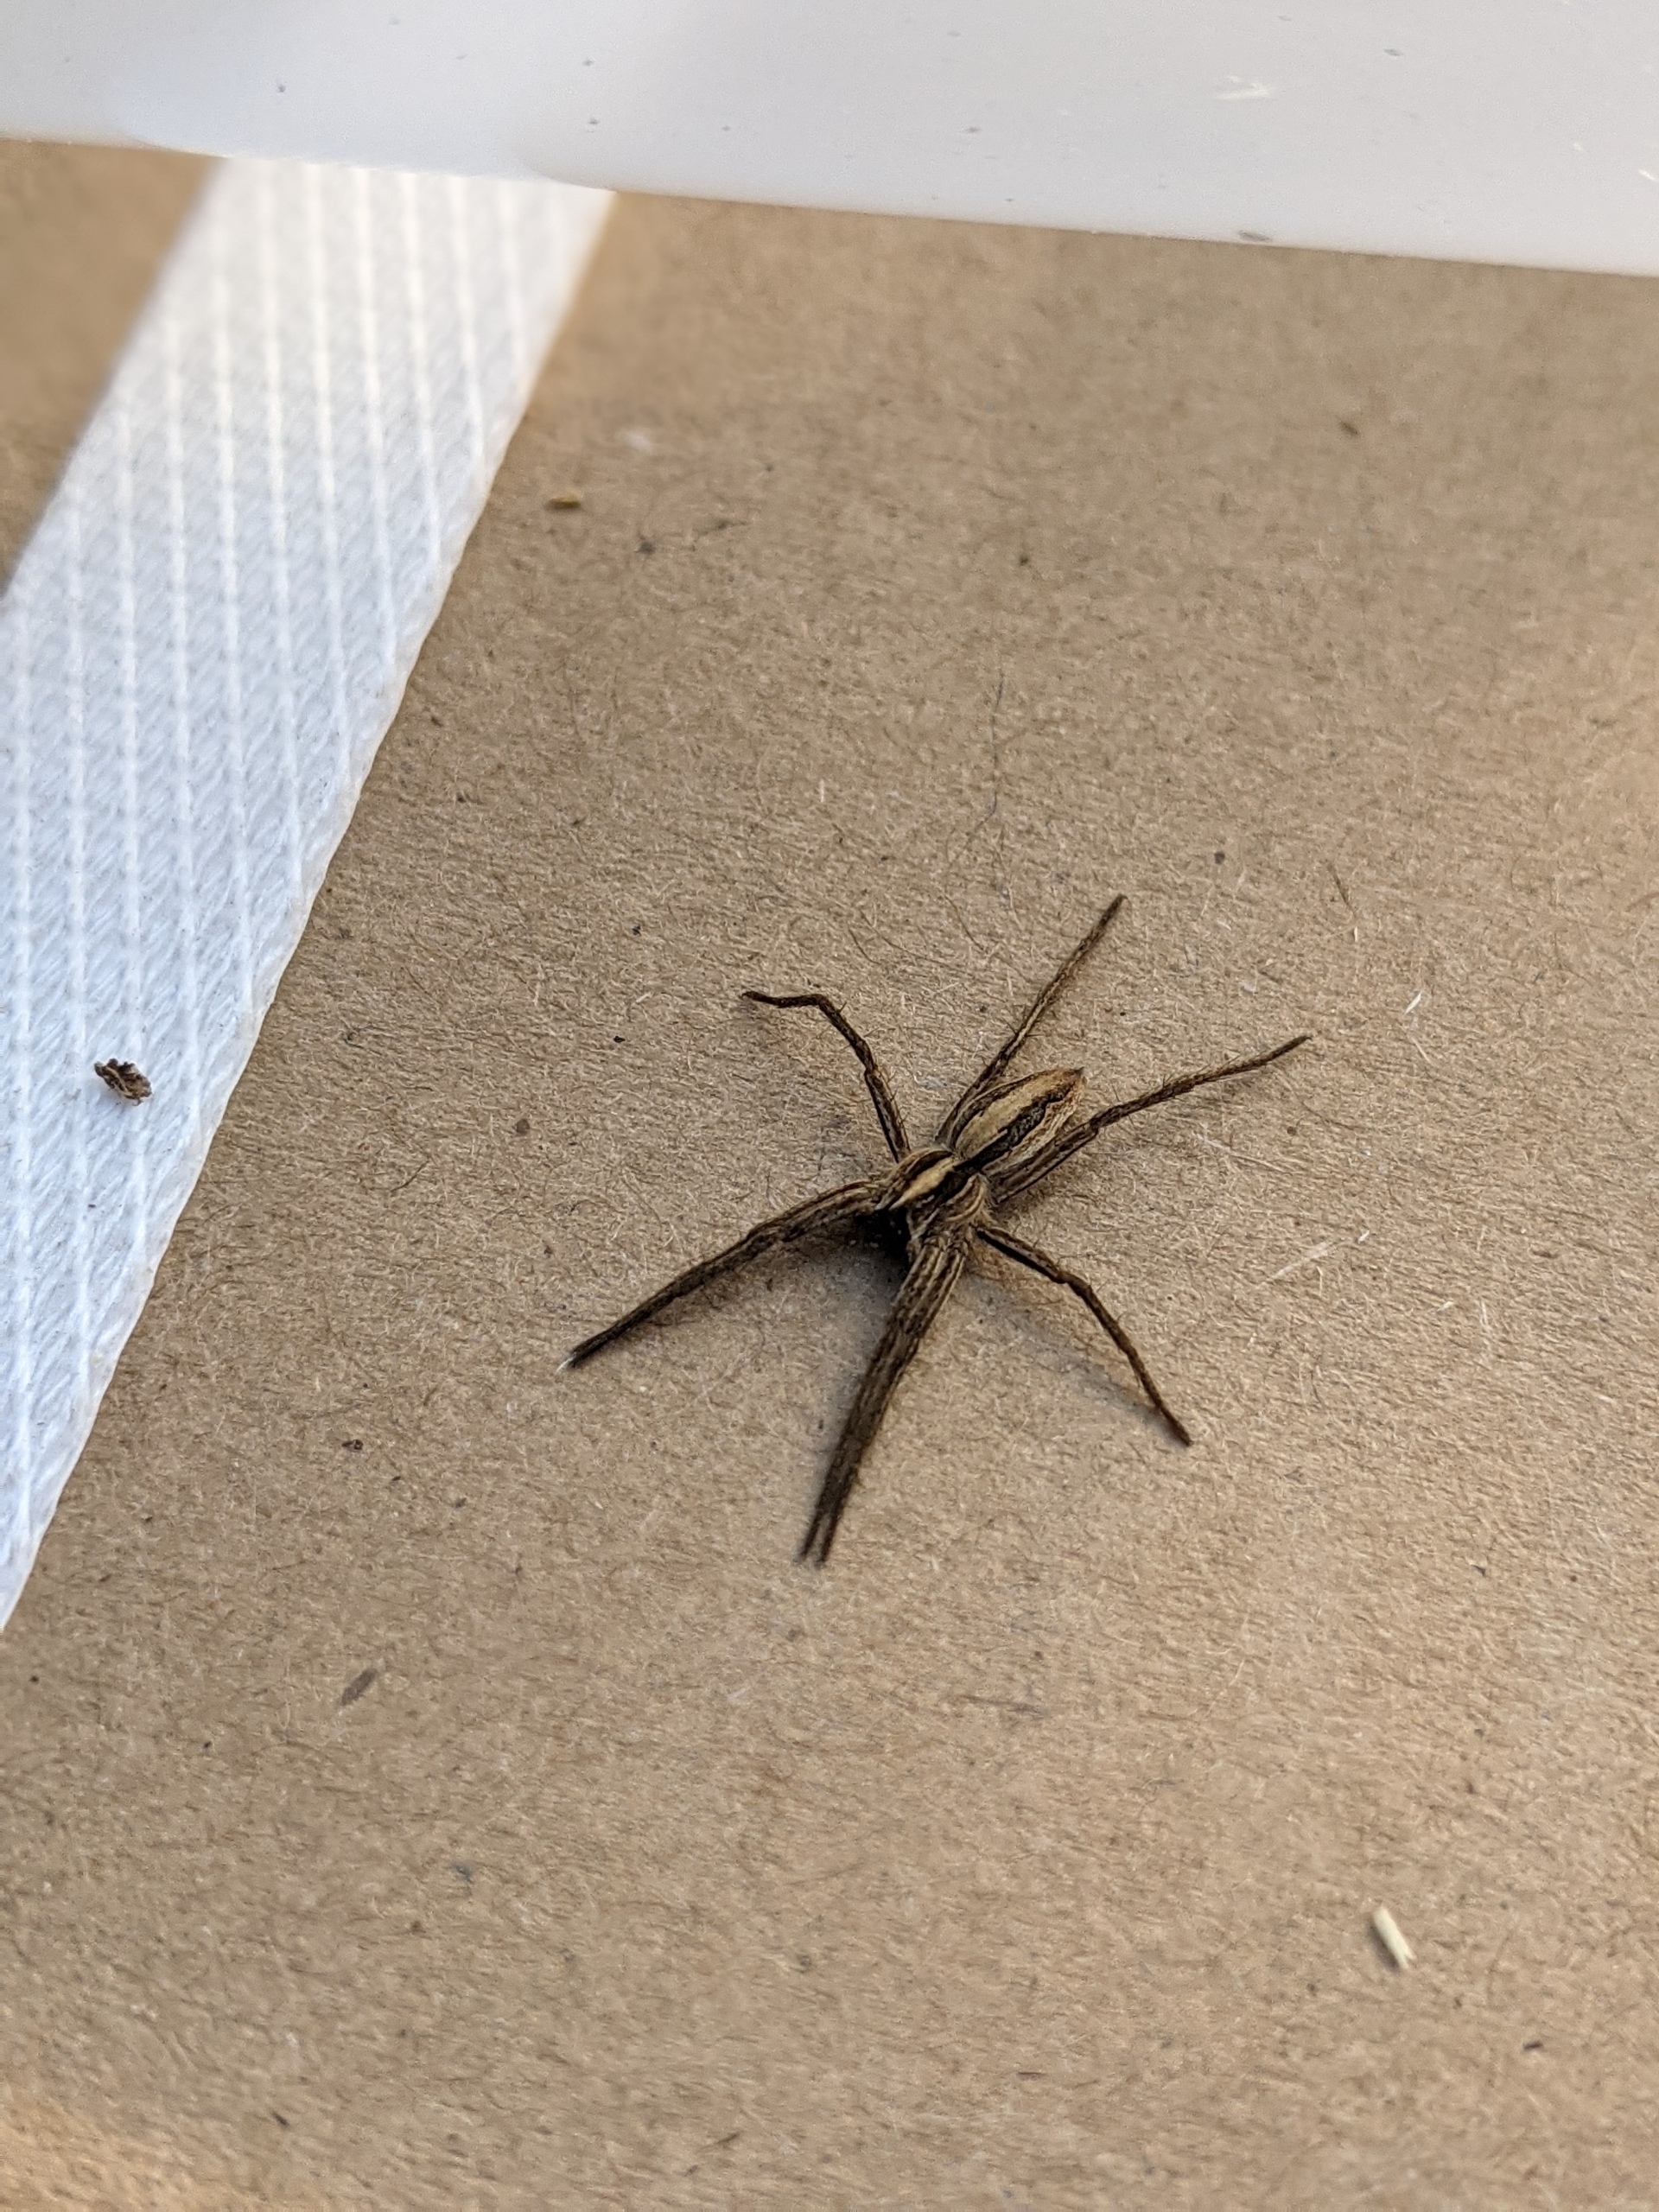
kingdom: Animalia
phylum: Arthropoda
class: Arachnida
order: Araneae
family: Pisauridae
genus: Pisaura
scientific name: Pisaura mirabilis
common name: Almindelig rovedderkop
